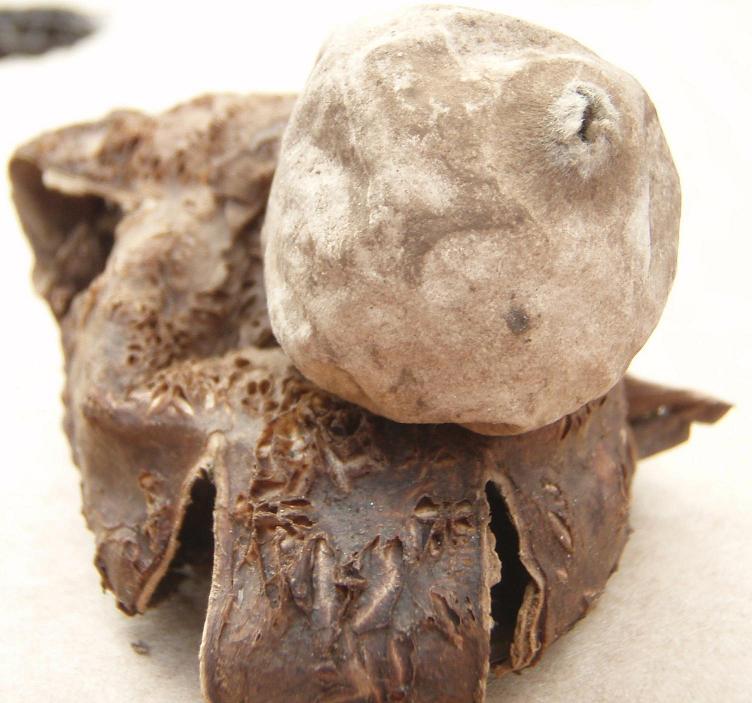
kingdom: Fungi
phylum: Basidiomycota
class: Agaricomycetes
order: Geastrales
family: Geastraceae
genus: Geastrum
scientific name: Geastrum michelianum
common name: kødet stjernebold
